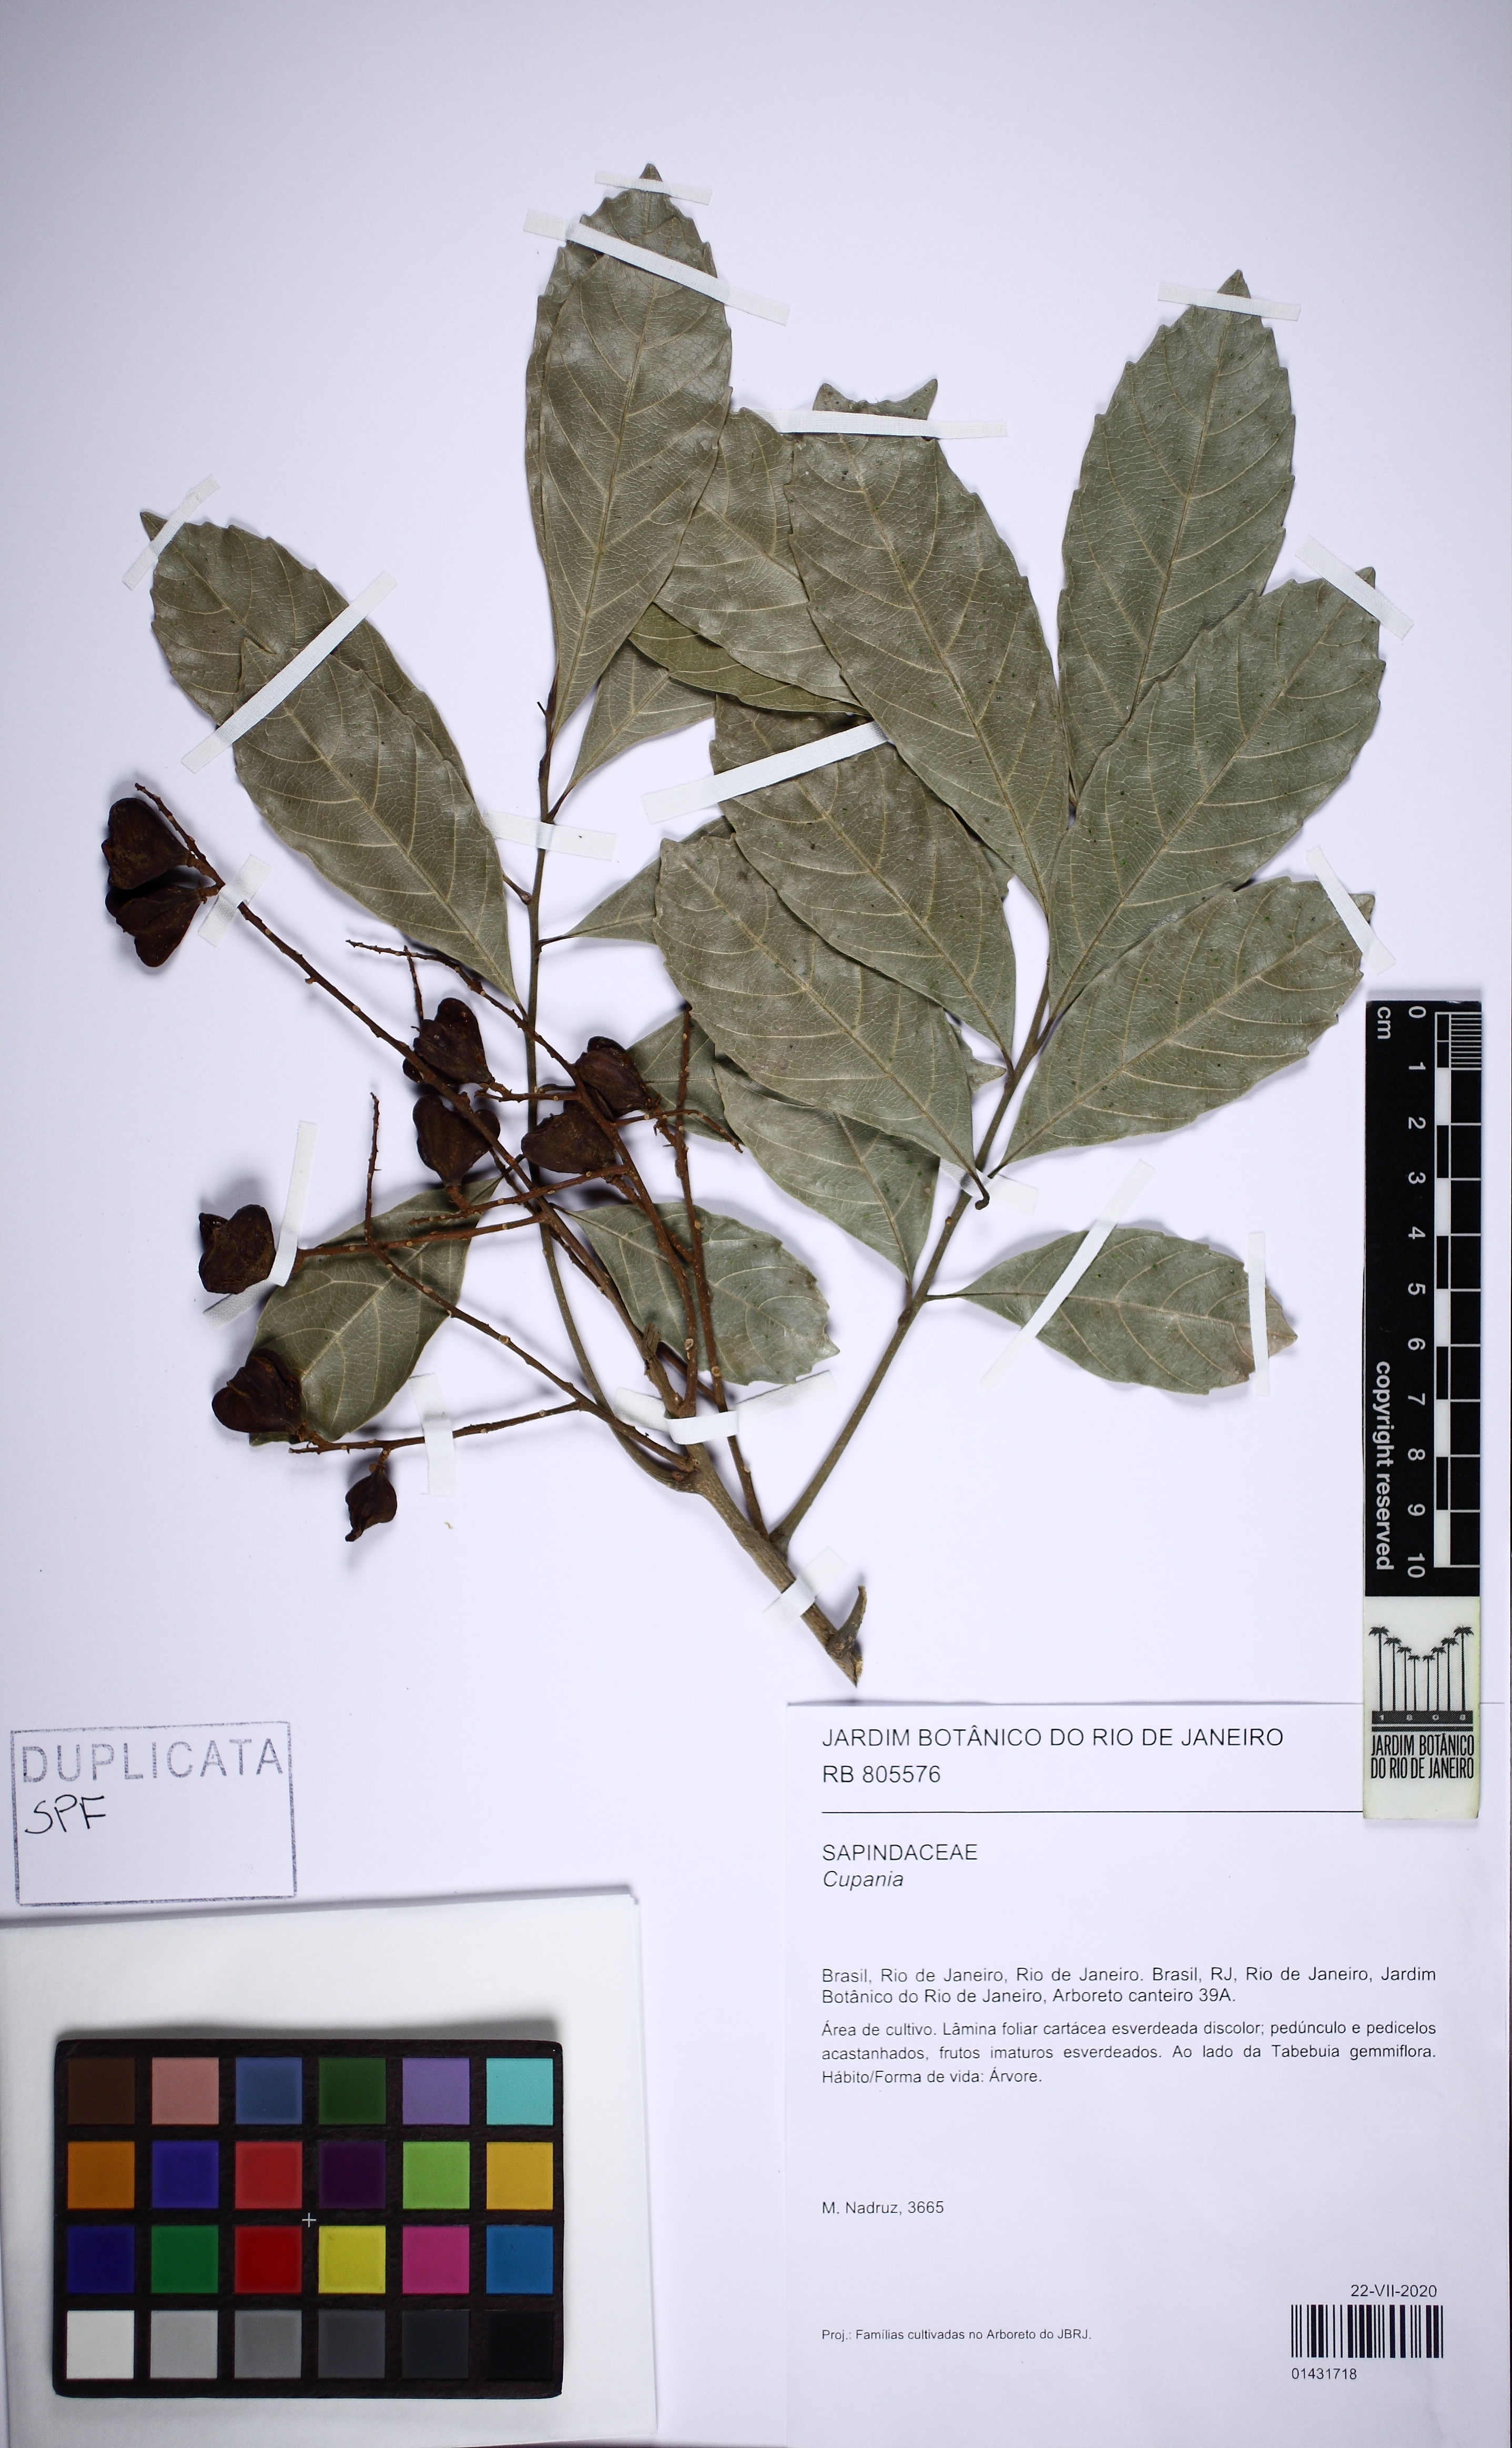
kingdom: Plantae
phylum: Tracheophyta
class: Magnoliopsida
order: Sapindales
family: Sapindaceae
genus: Cupania
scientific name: Cupania
